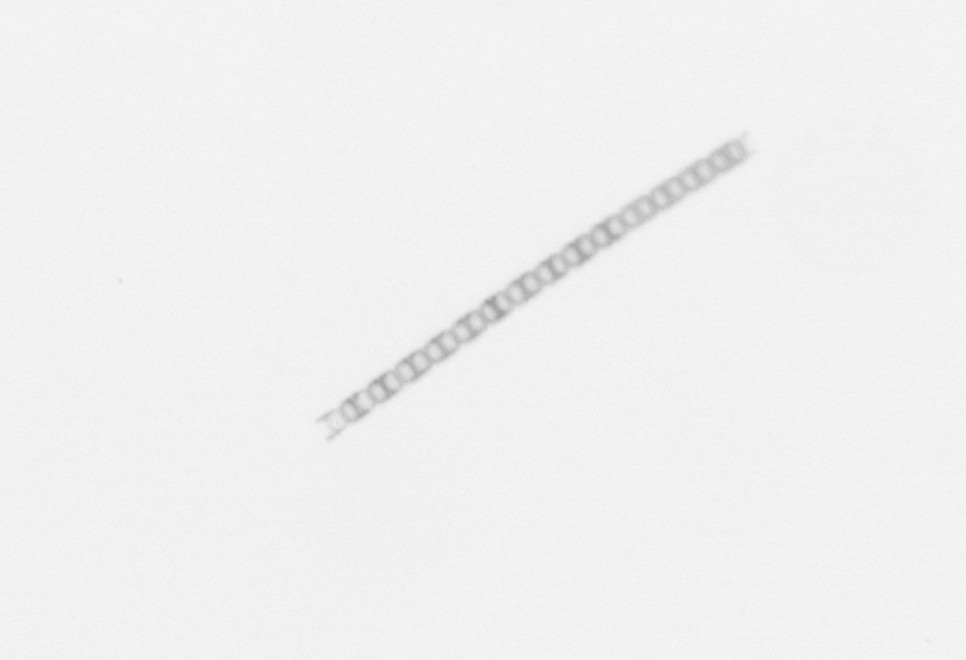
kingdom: Chromista
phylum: Ochrophyta
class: Bacillariophyceae
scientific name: Bacillariophyceae
